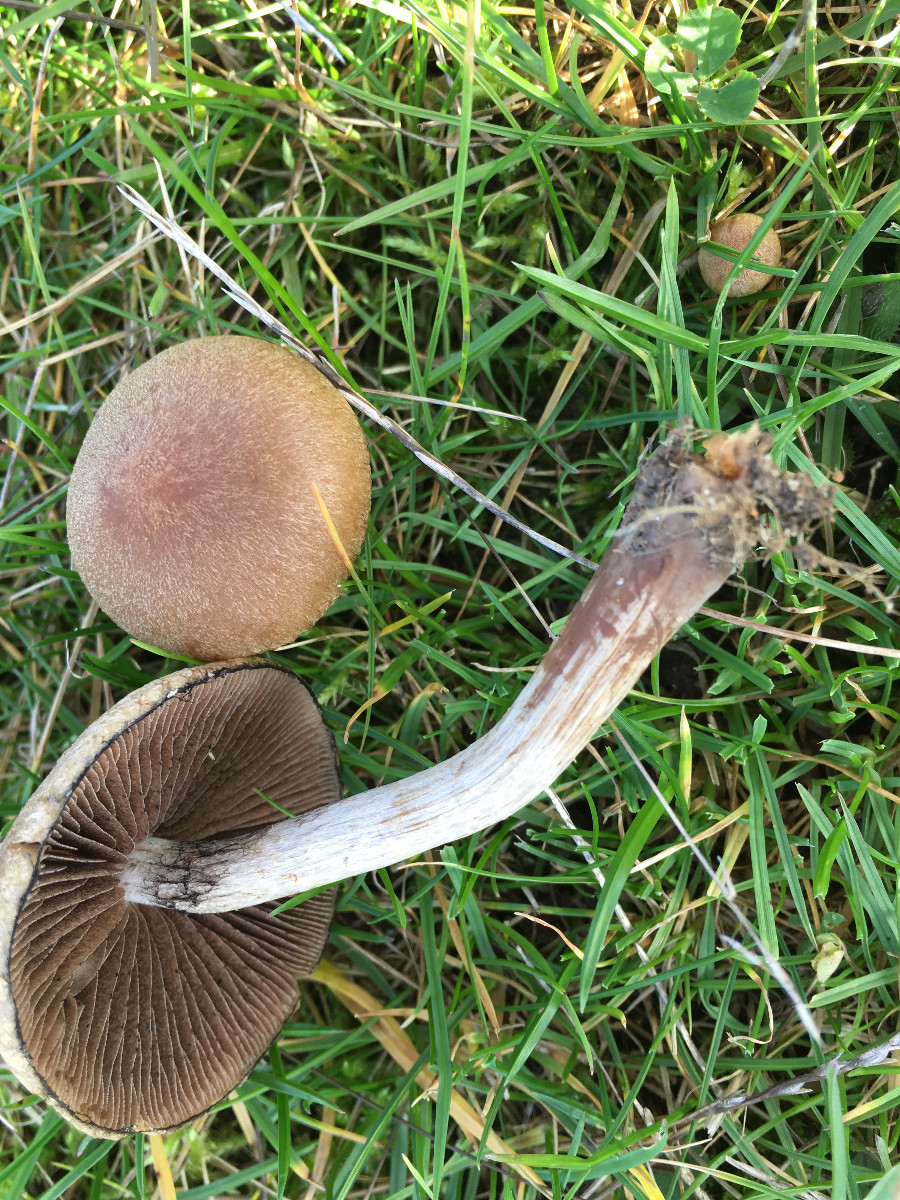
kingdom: Fungi
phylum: Basidiomycota
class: Agaricomycetes
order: Agaricales
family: Psathyrellaceae
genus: Lacrymaria
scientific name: Lacrymaria lacrymabunda
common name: grædende mørkhat
